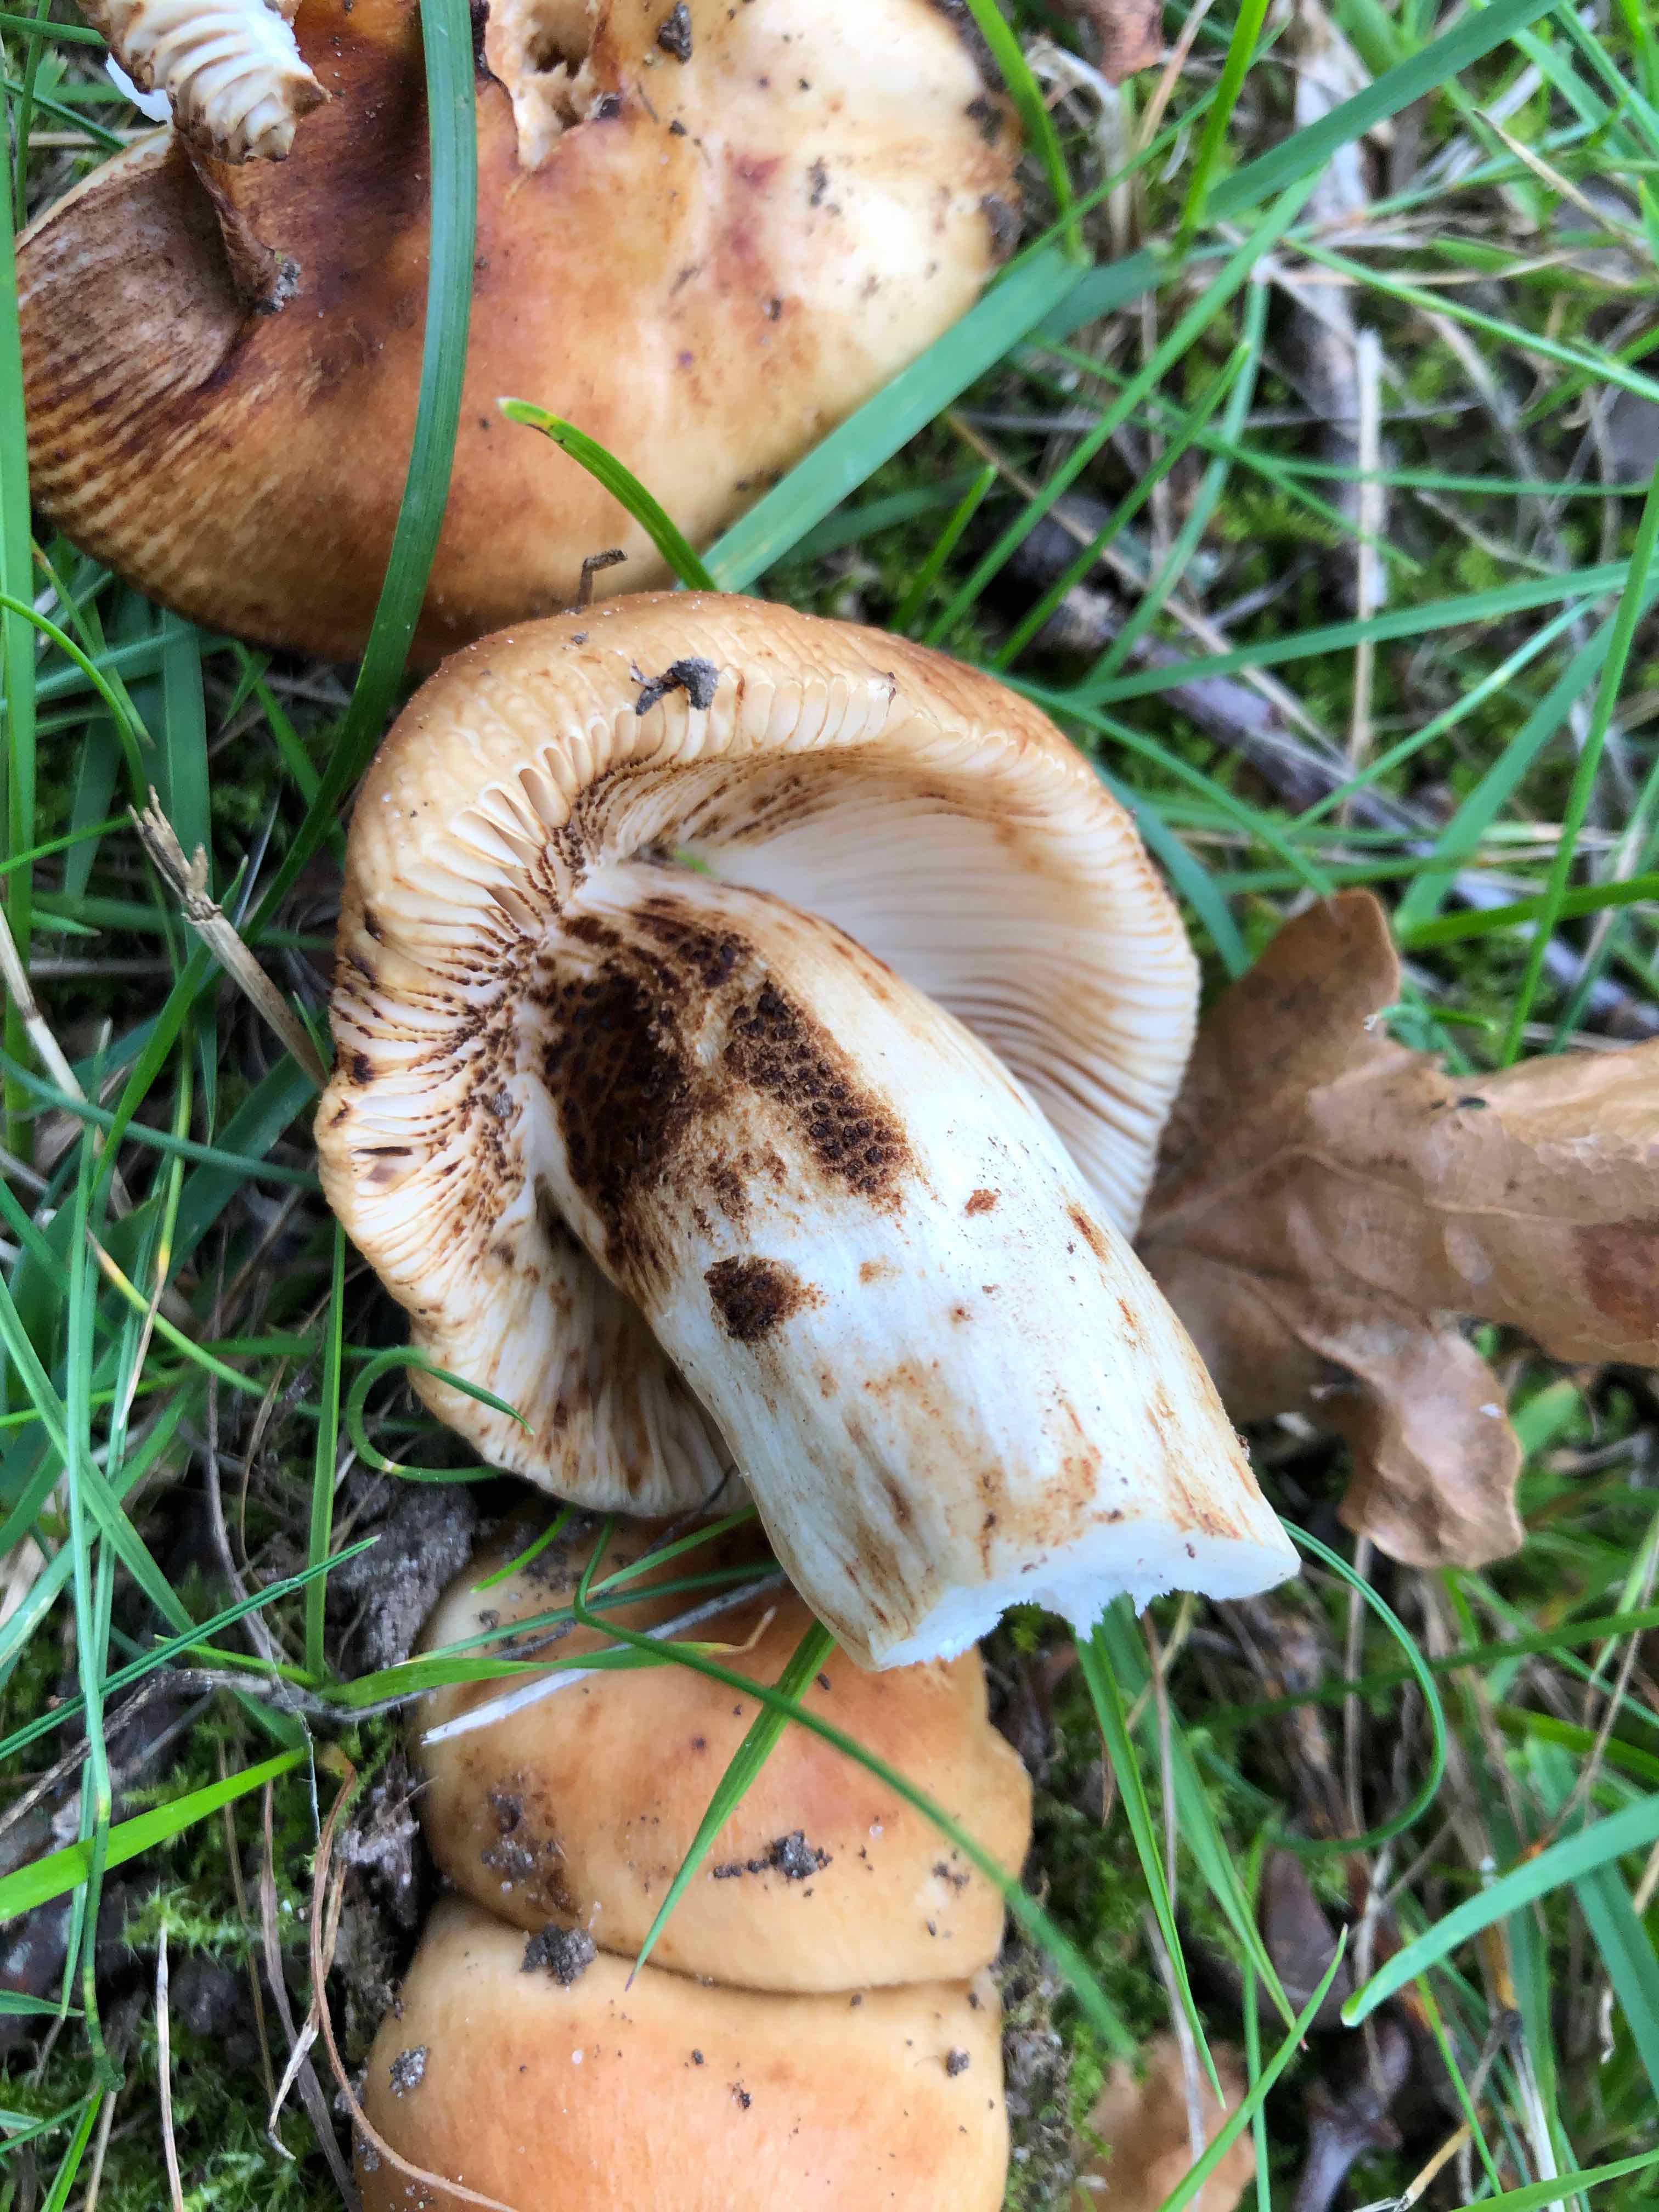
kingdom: Fungi
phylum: Basidiomycota
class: Agaricomycetes
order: Russulales
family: Russulaceae
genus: Russula
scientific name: Russula grata
